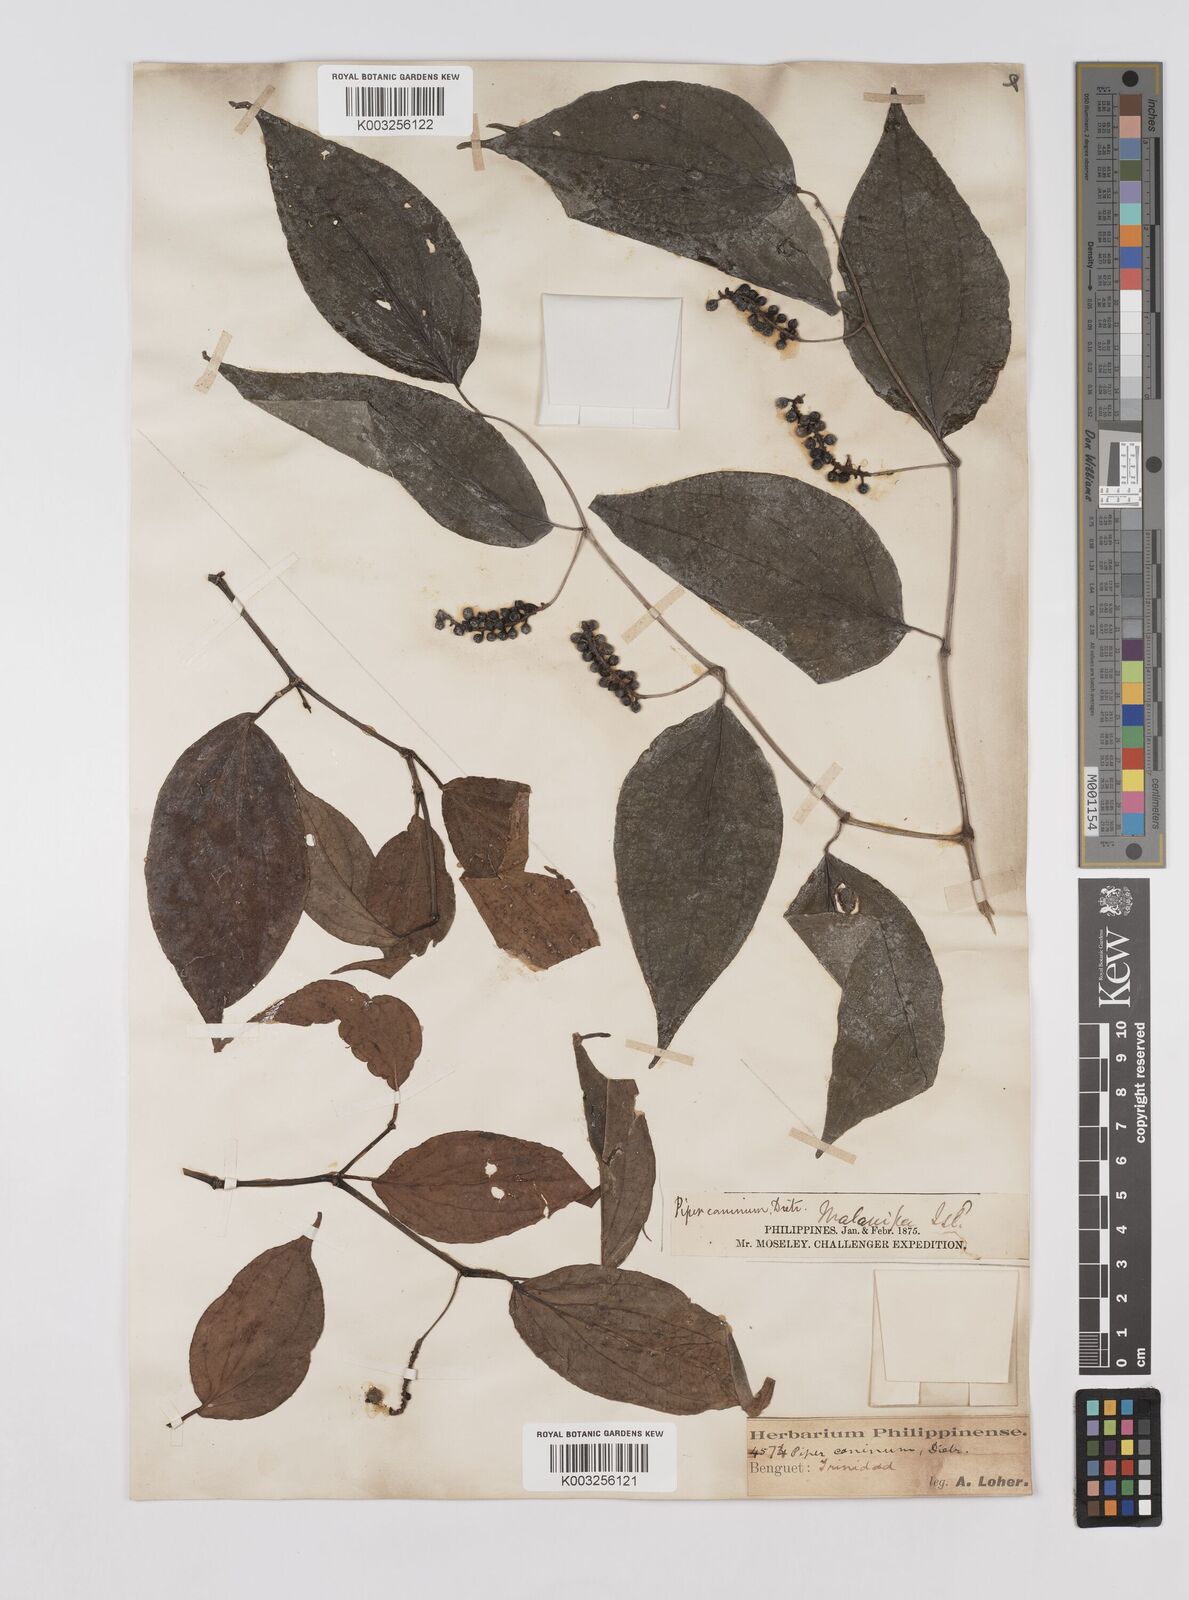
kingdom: Plantae
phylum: Tracheophyta
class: Magnoliopsida
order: Piperales
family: Piperaceae
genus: Piper
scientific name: Piper lanatum
